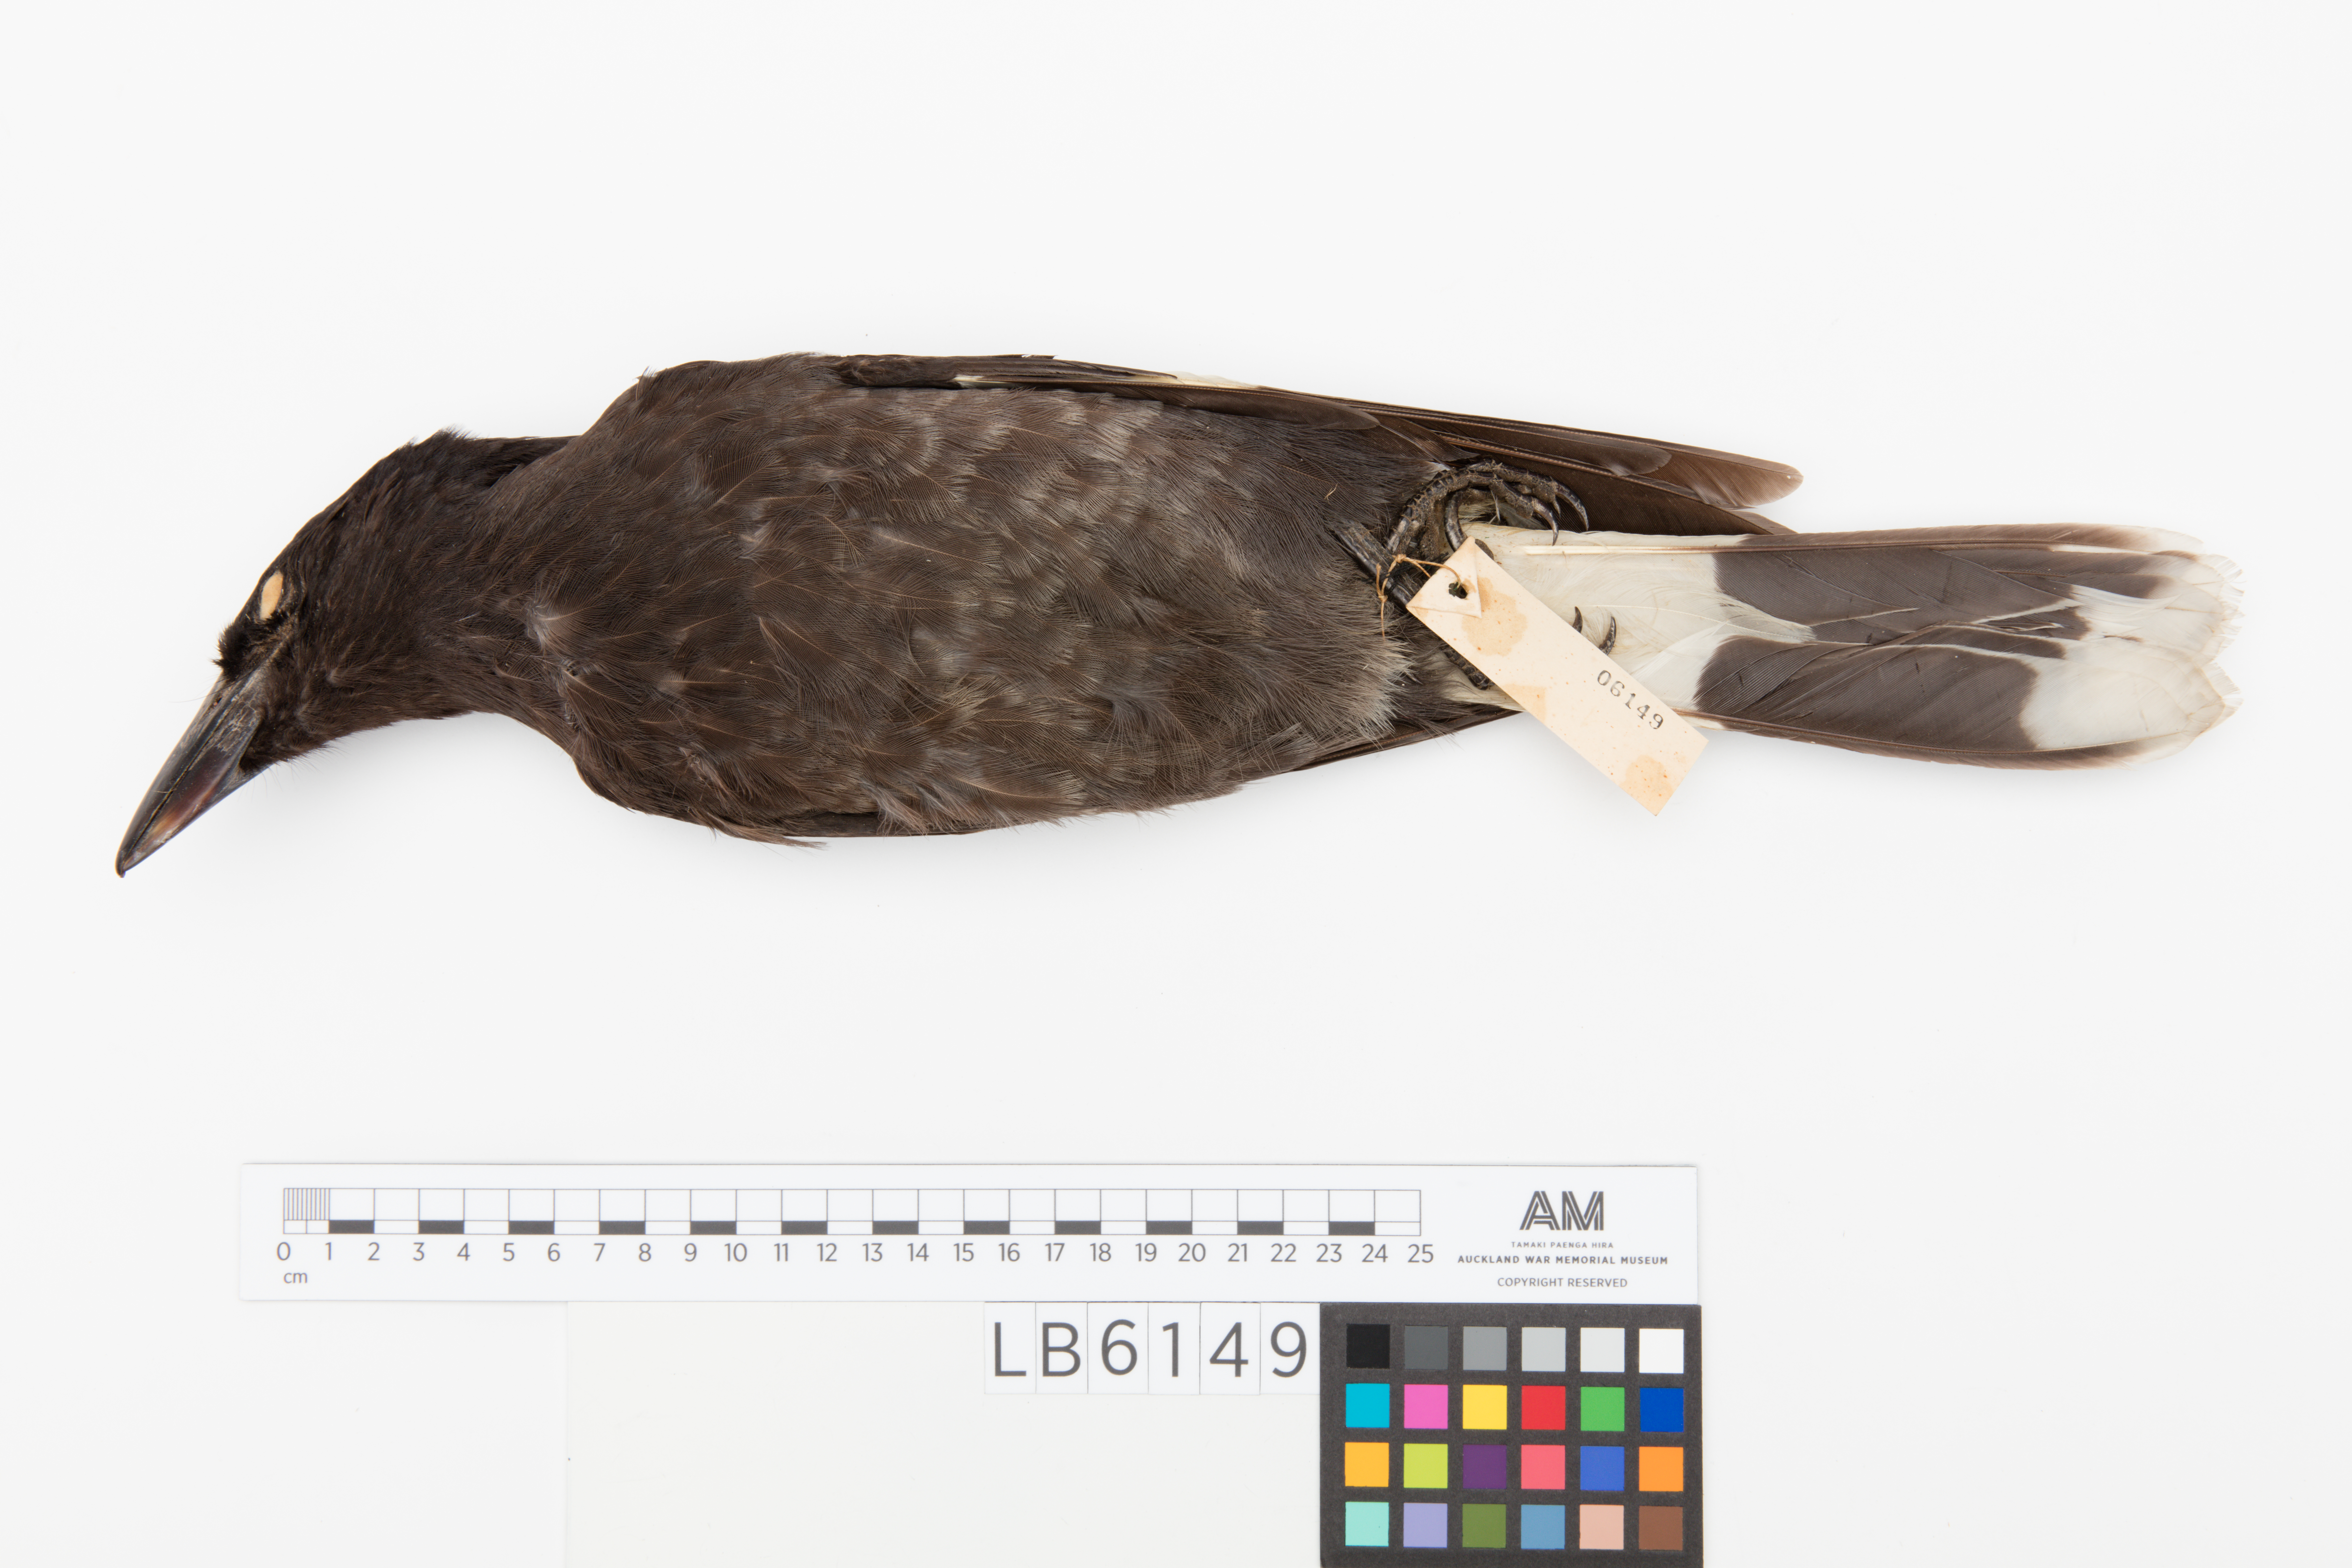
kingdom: Animalia
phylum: Chordata
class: Aves
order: Passeriformes
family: Cracticidae
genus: Strepera
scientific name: Strepera graculina
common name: Pied currawong
